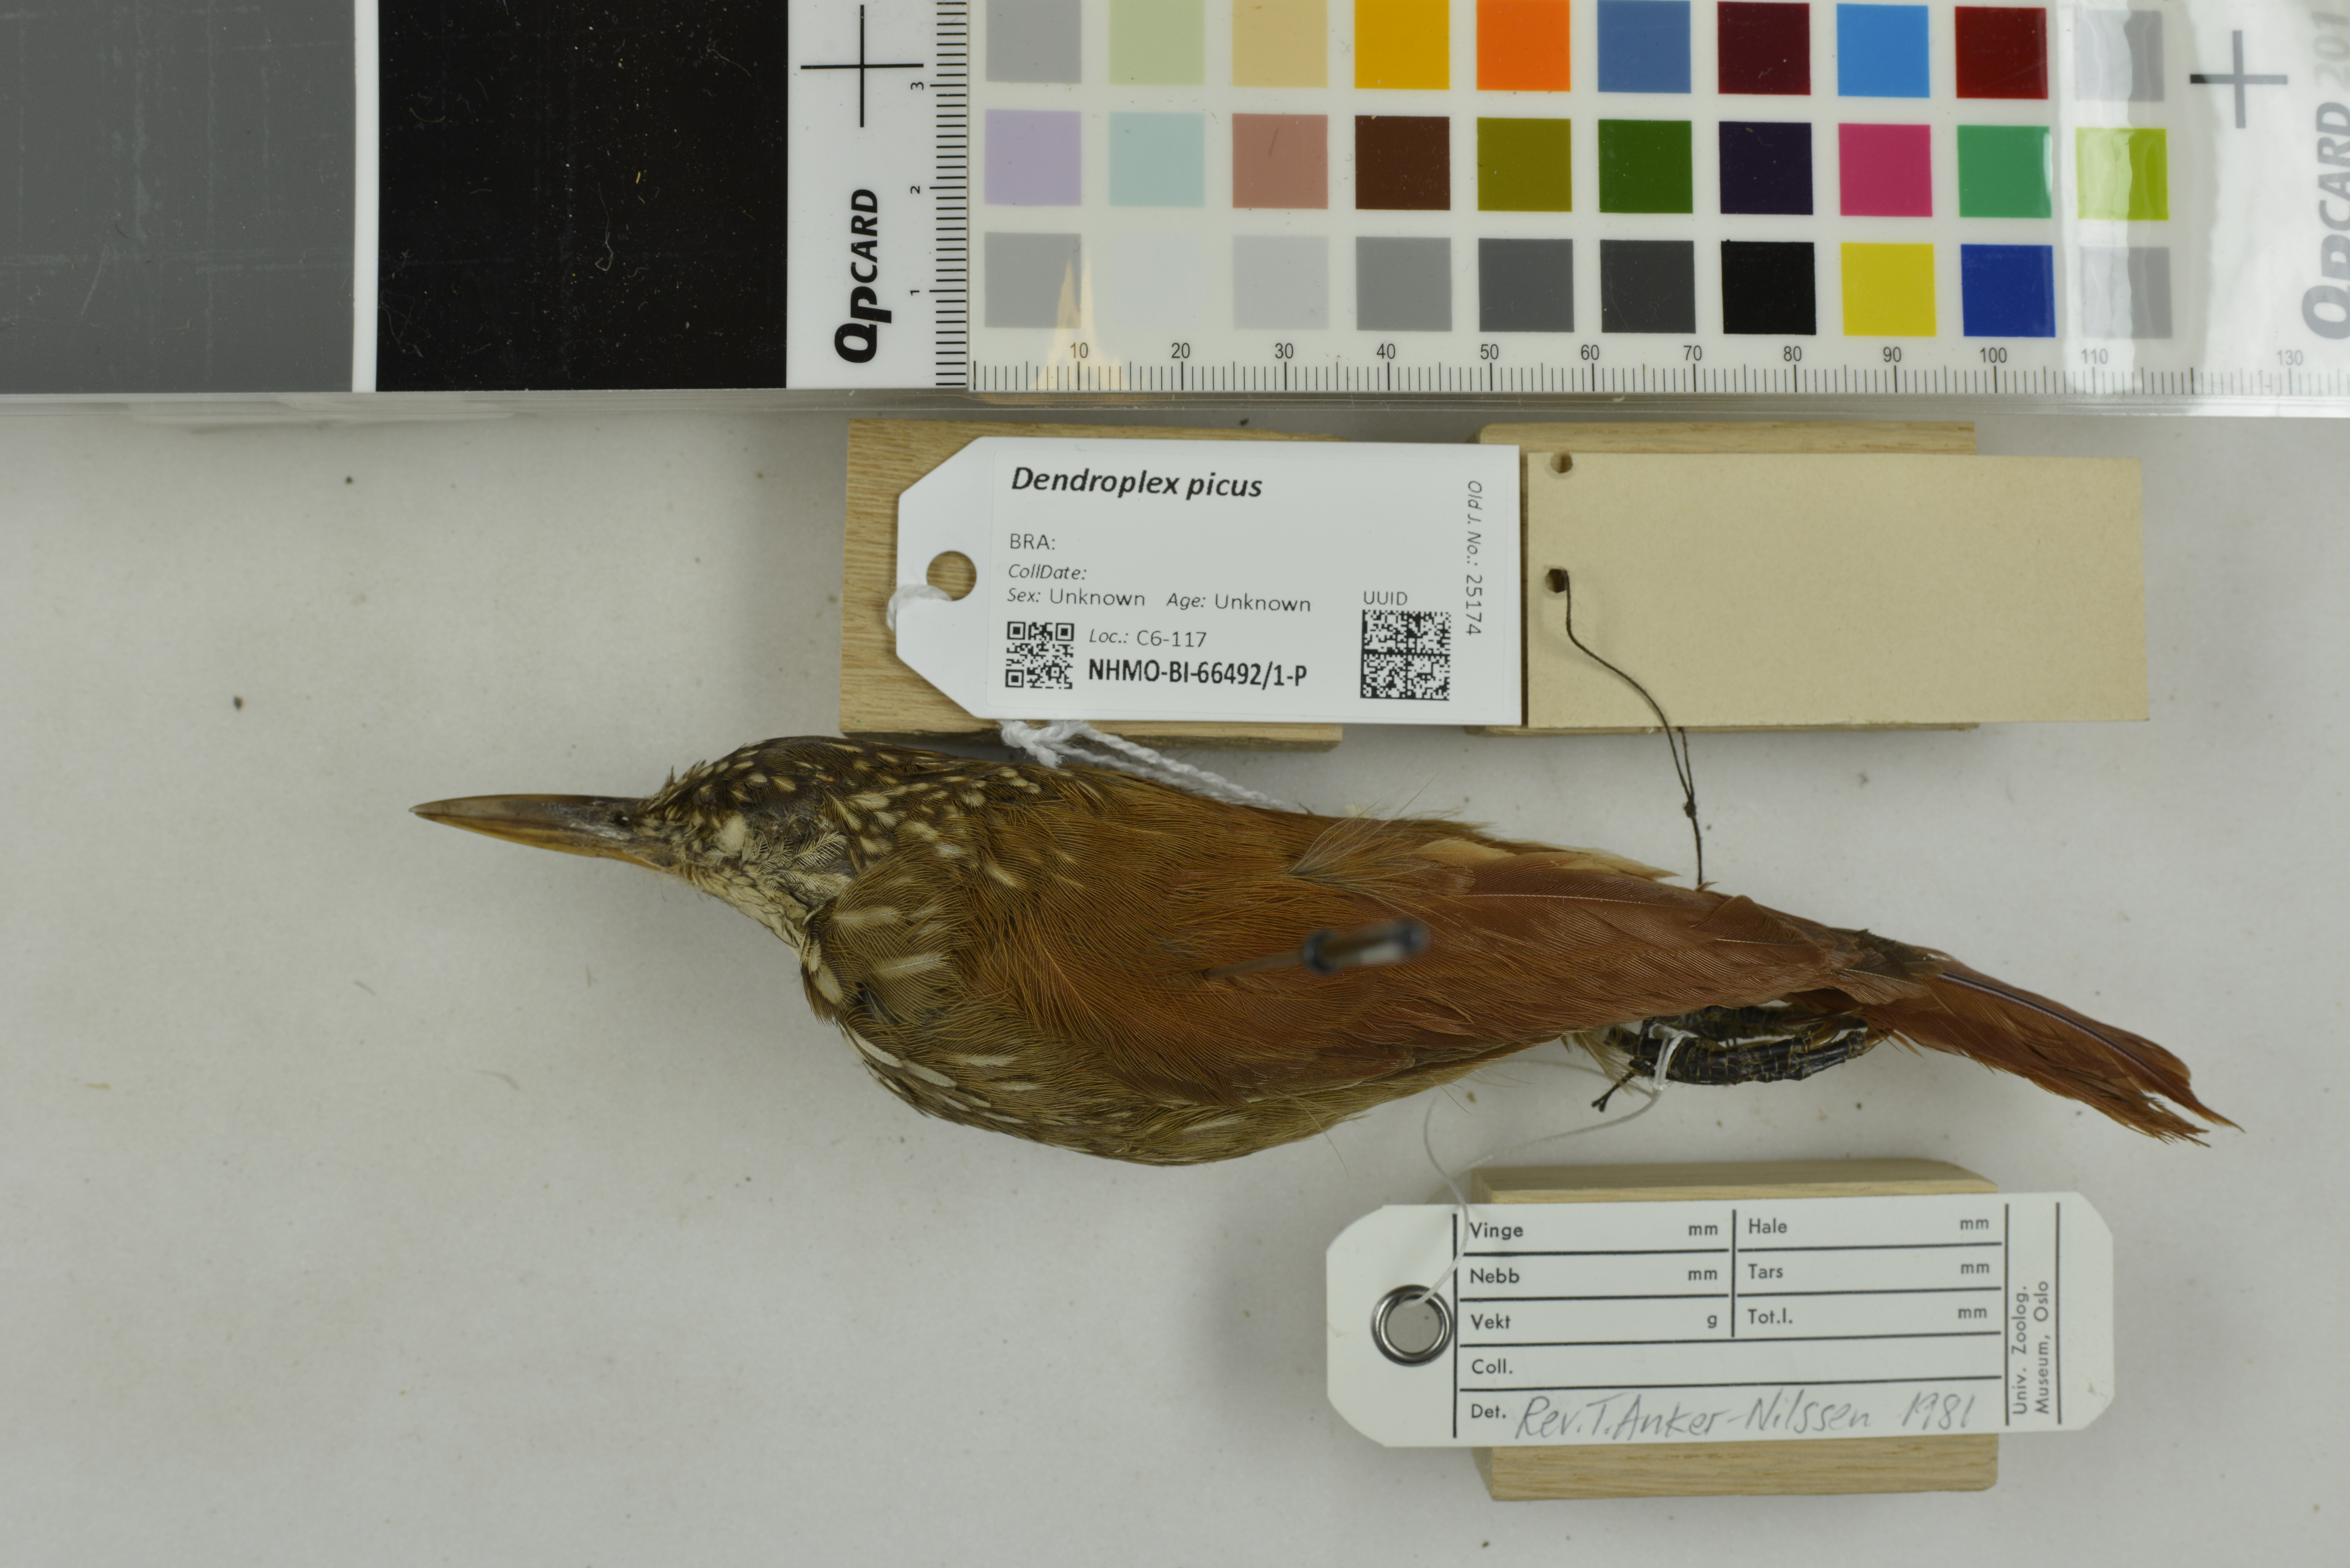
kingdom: Animalia
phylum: Chordata
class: Aves
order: Passeriformes
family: Furnariidae
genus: Xiphorhynchus
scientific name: Xiphorhynchus picus
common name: Straight-billed woodcreeper
